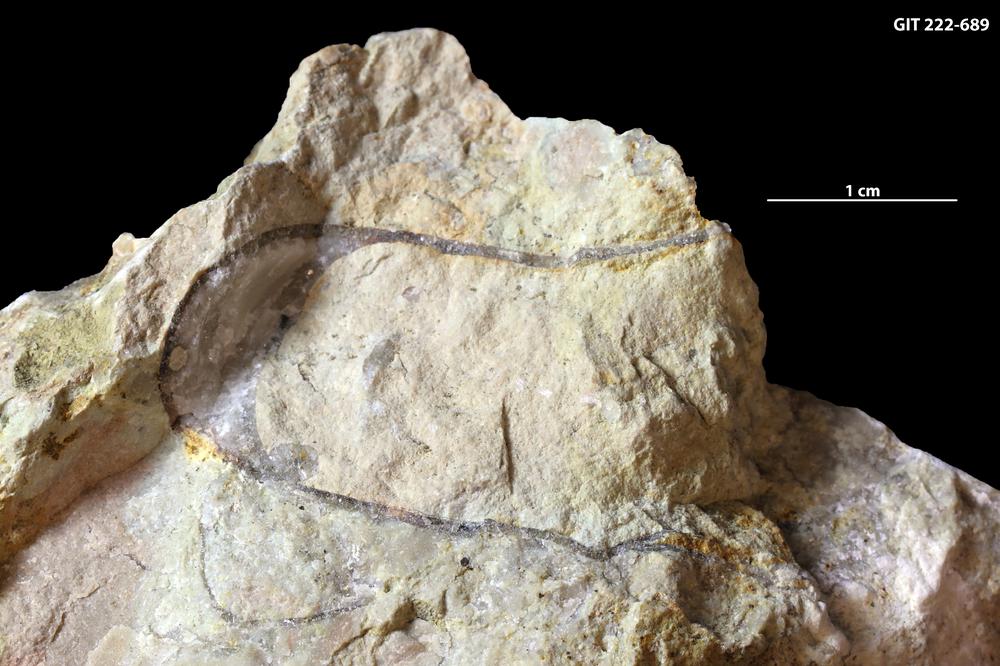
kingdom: Animalia
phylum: Mollusca
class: Cephalopoda
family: Barrandeoceratidae
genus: Vasalemmoceras
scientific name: Vasalemmoceras tolerabile
